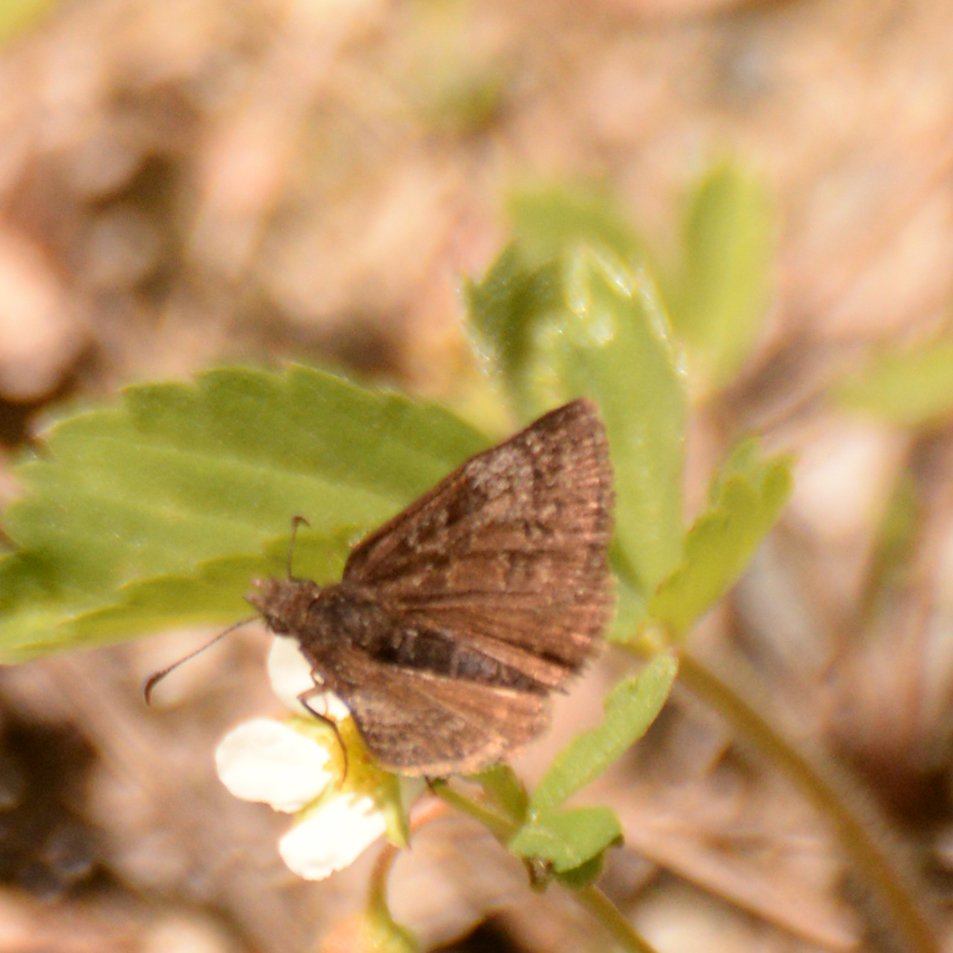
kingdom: Animalia
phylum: Arthropoda
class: Insecta
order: Lepidoptera
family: Hesperiidae
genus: Erynnis
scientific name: Erynnis
